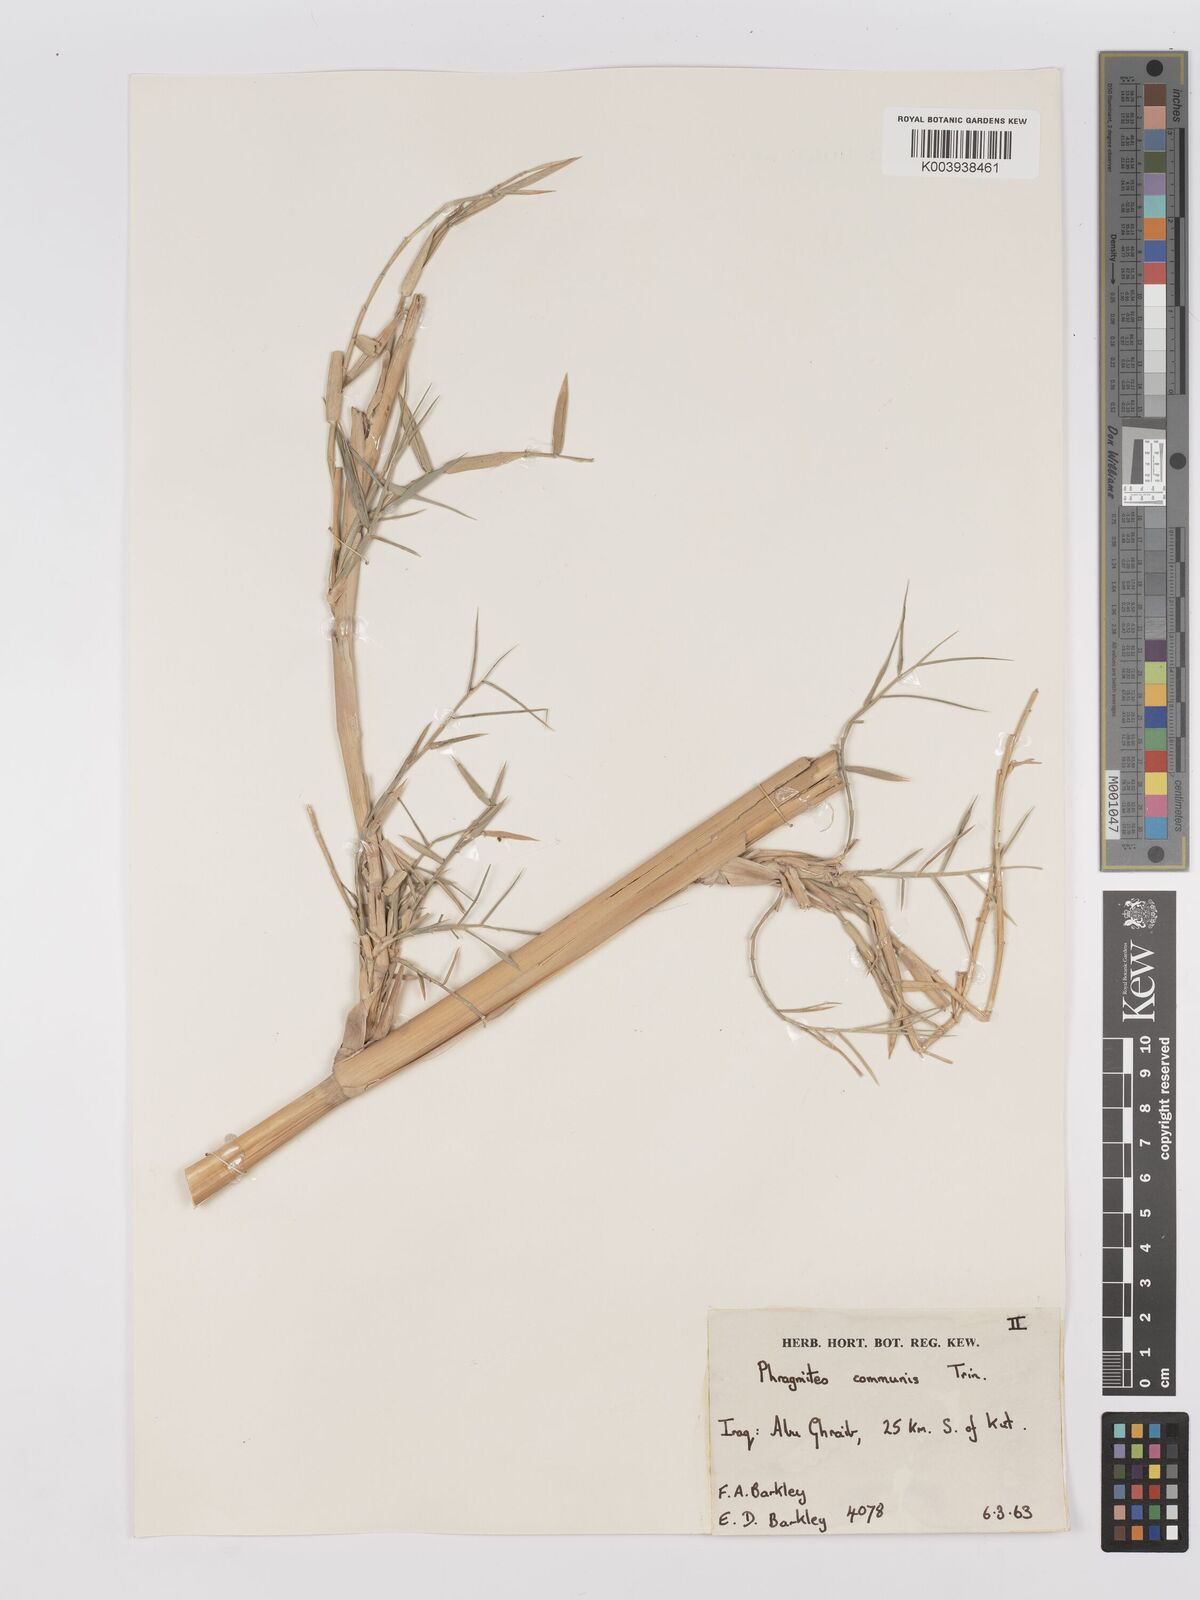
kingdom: Plantae
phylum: Tracheophyta
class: Liliopsida
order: Poales
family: Poaceae
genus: Phragmites
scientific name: Phragmites australis
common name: Common reed
